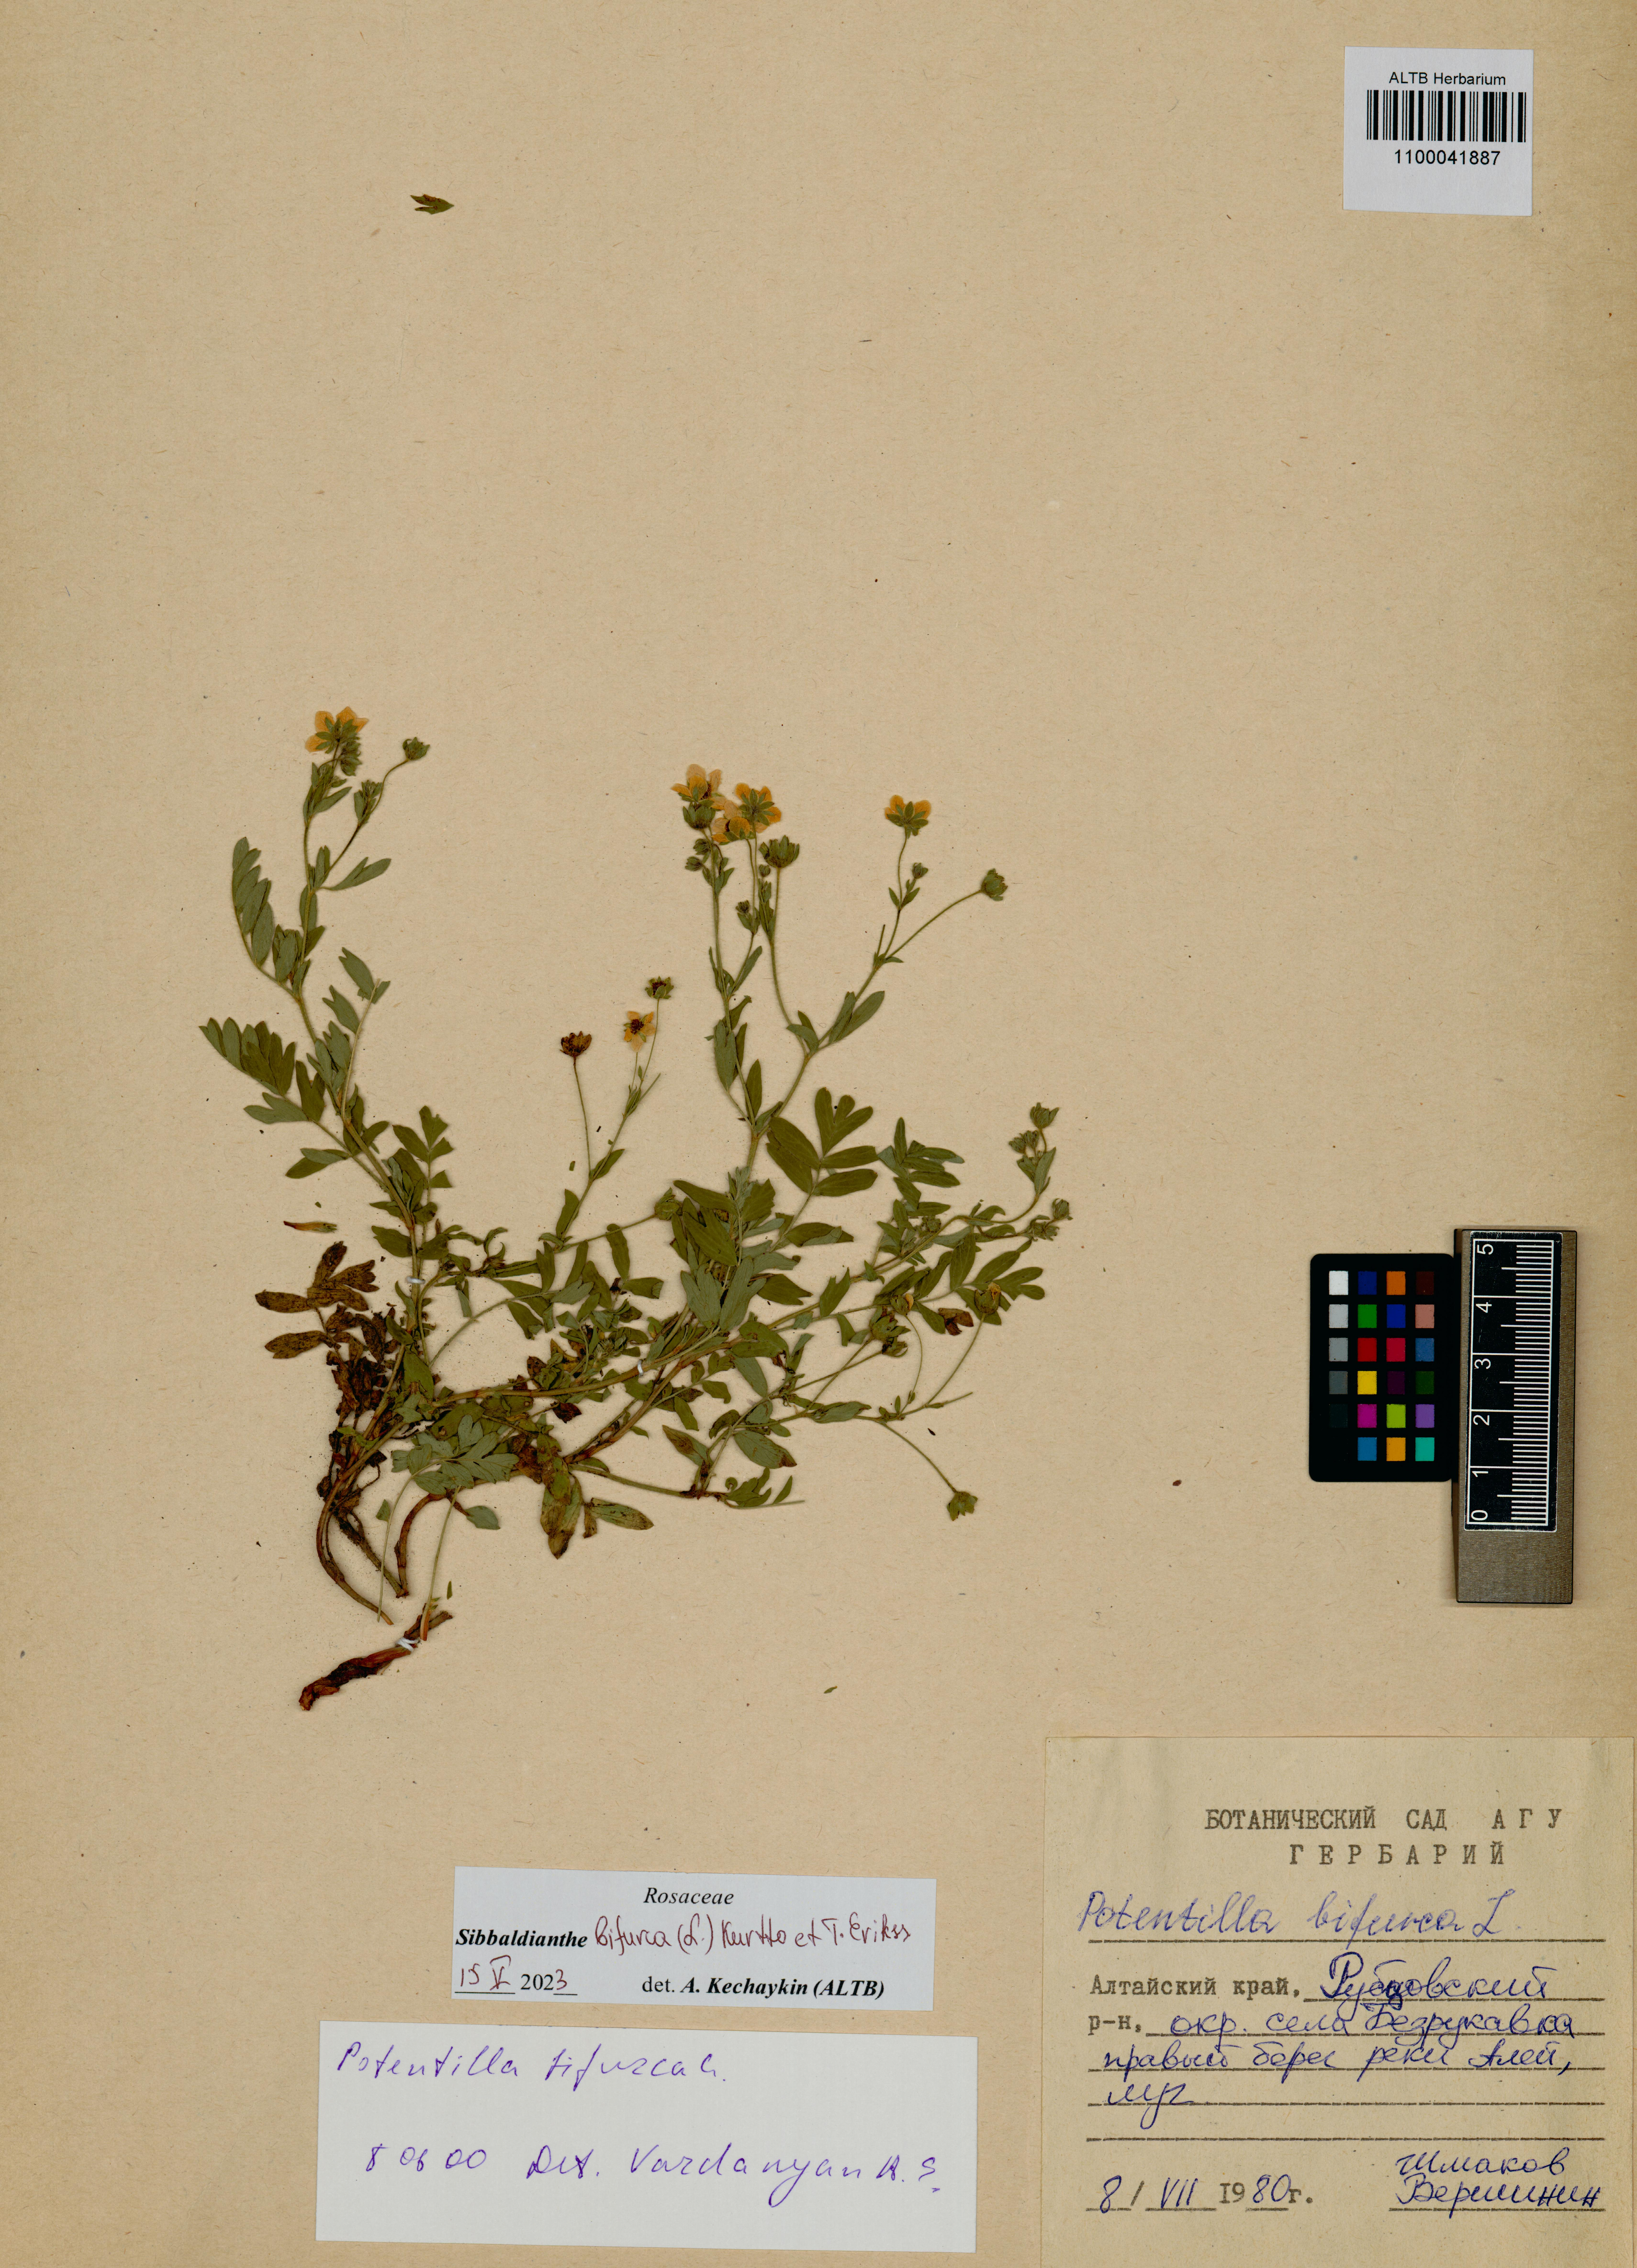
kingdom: Plantae
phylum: Tracheophyta
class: Magnoliopsida
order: Rosales
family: Rosaceae
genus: Sibbaldianthe
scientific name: Sibbaldianthe bifurca
